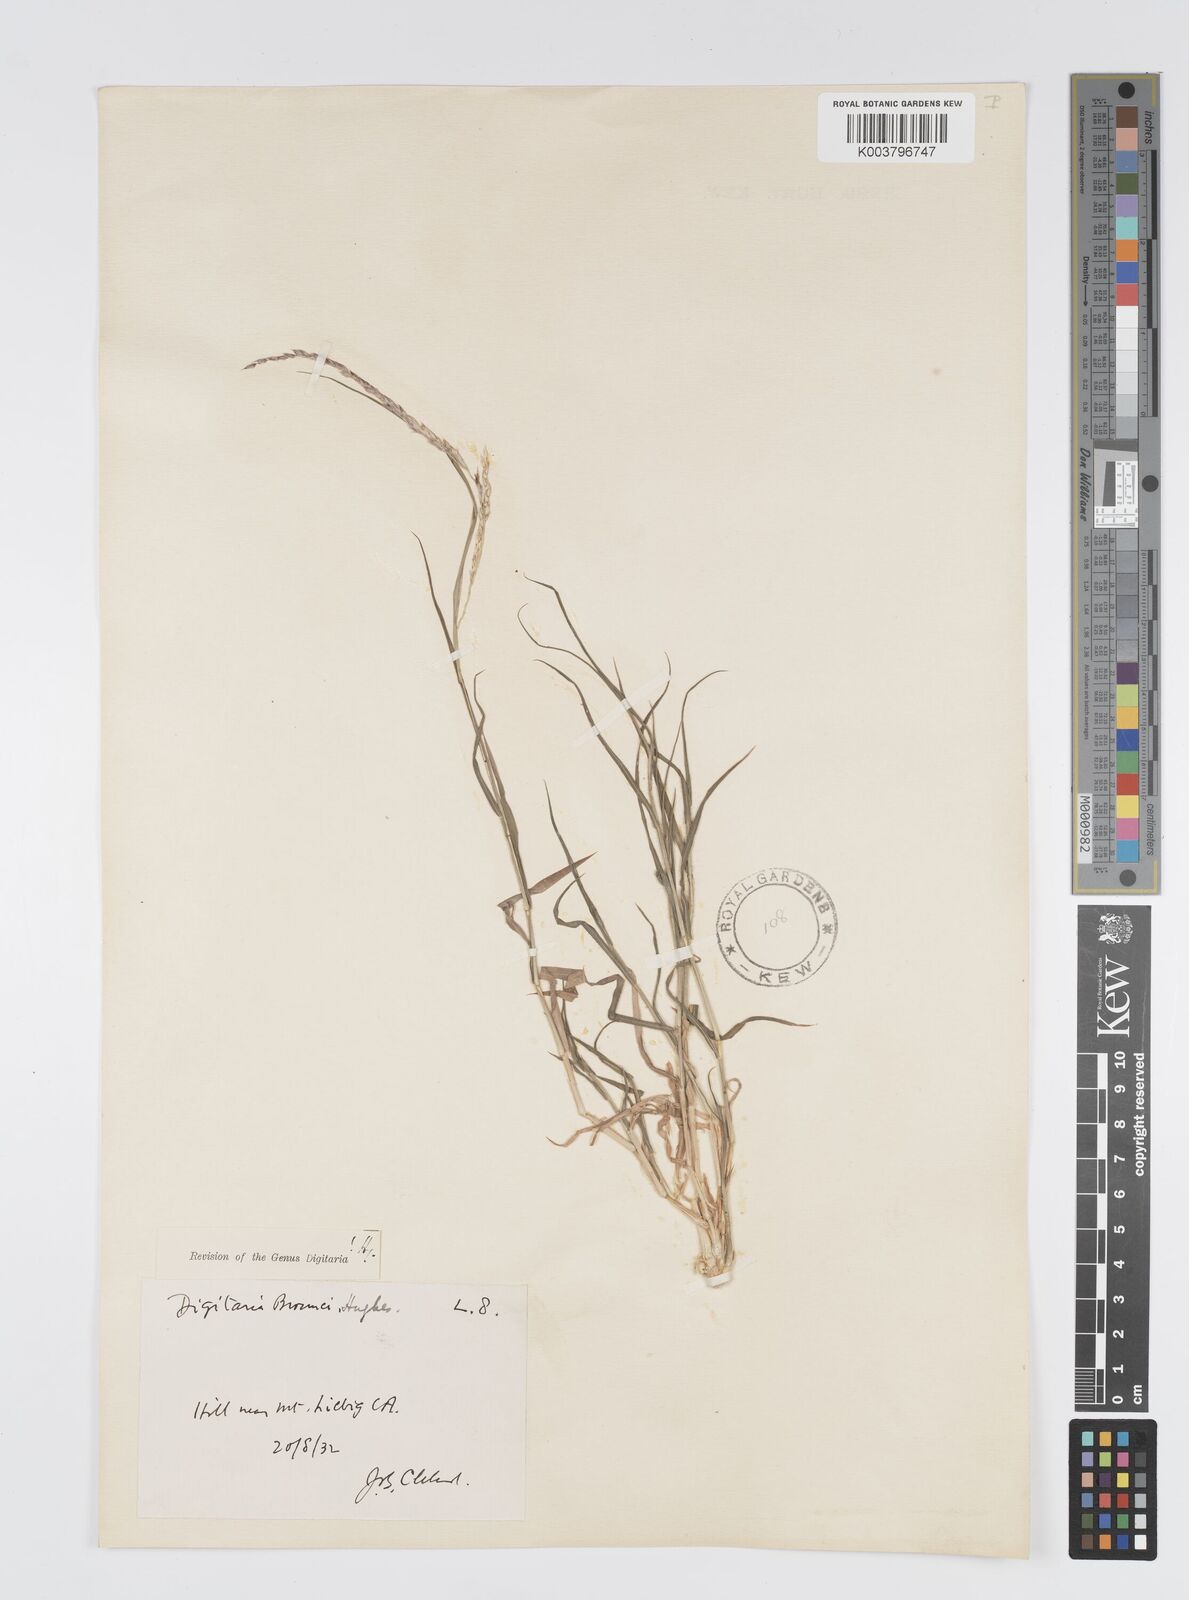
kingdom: Plantae
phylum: Tracheophyta
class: Liliopsida
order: Poales
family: Poaceae
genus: Digitaria
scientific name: Digitaria brownii
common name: Cotton grass
